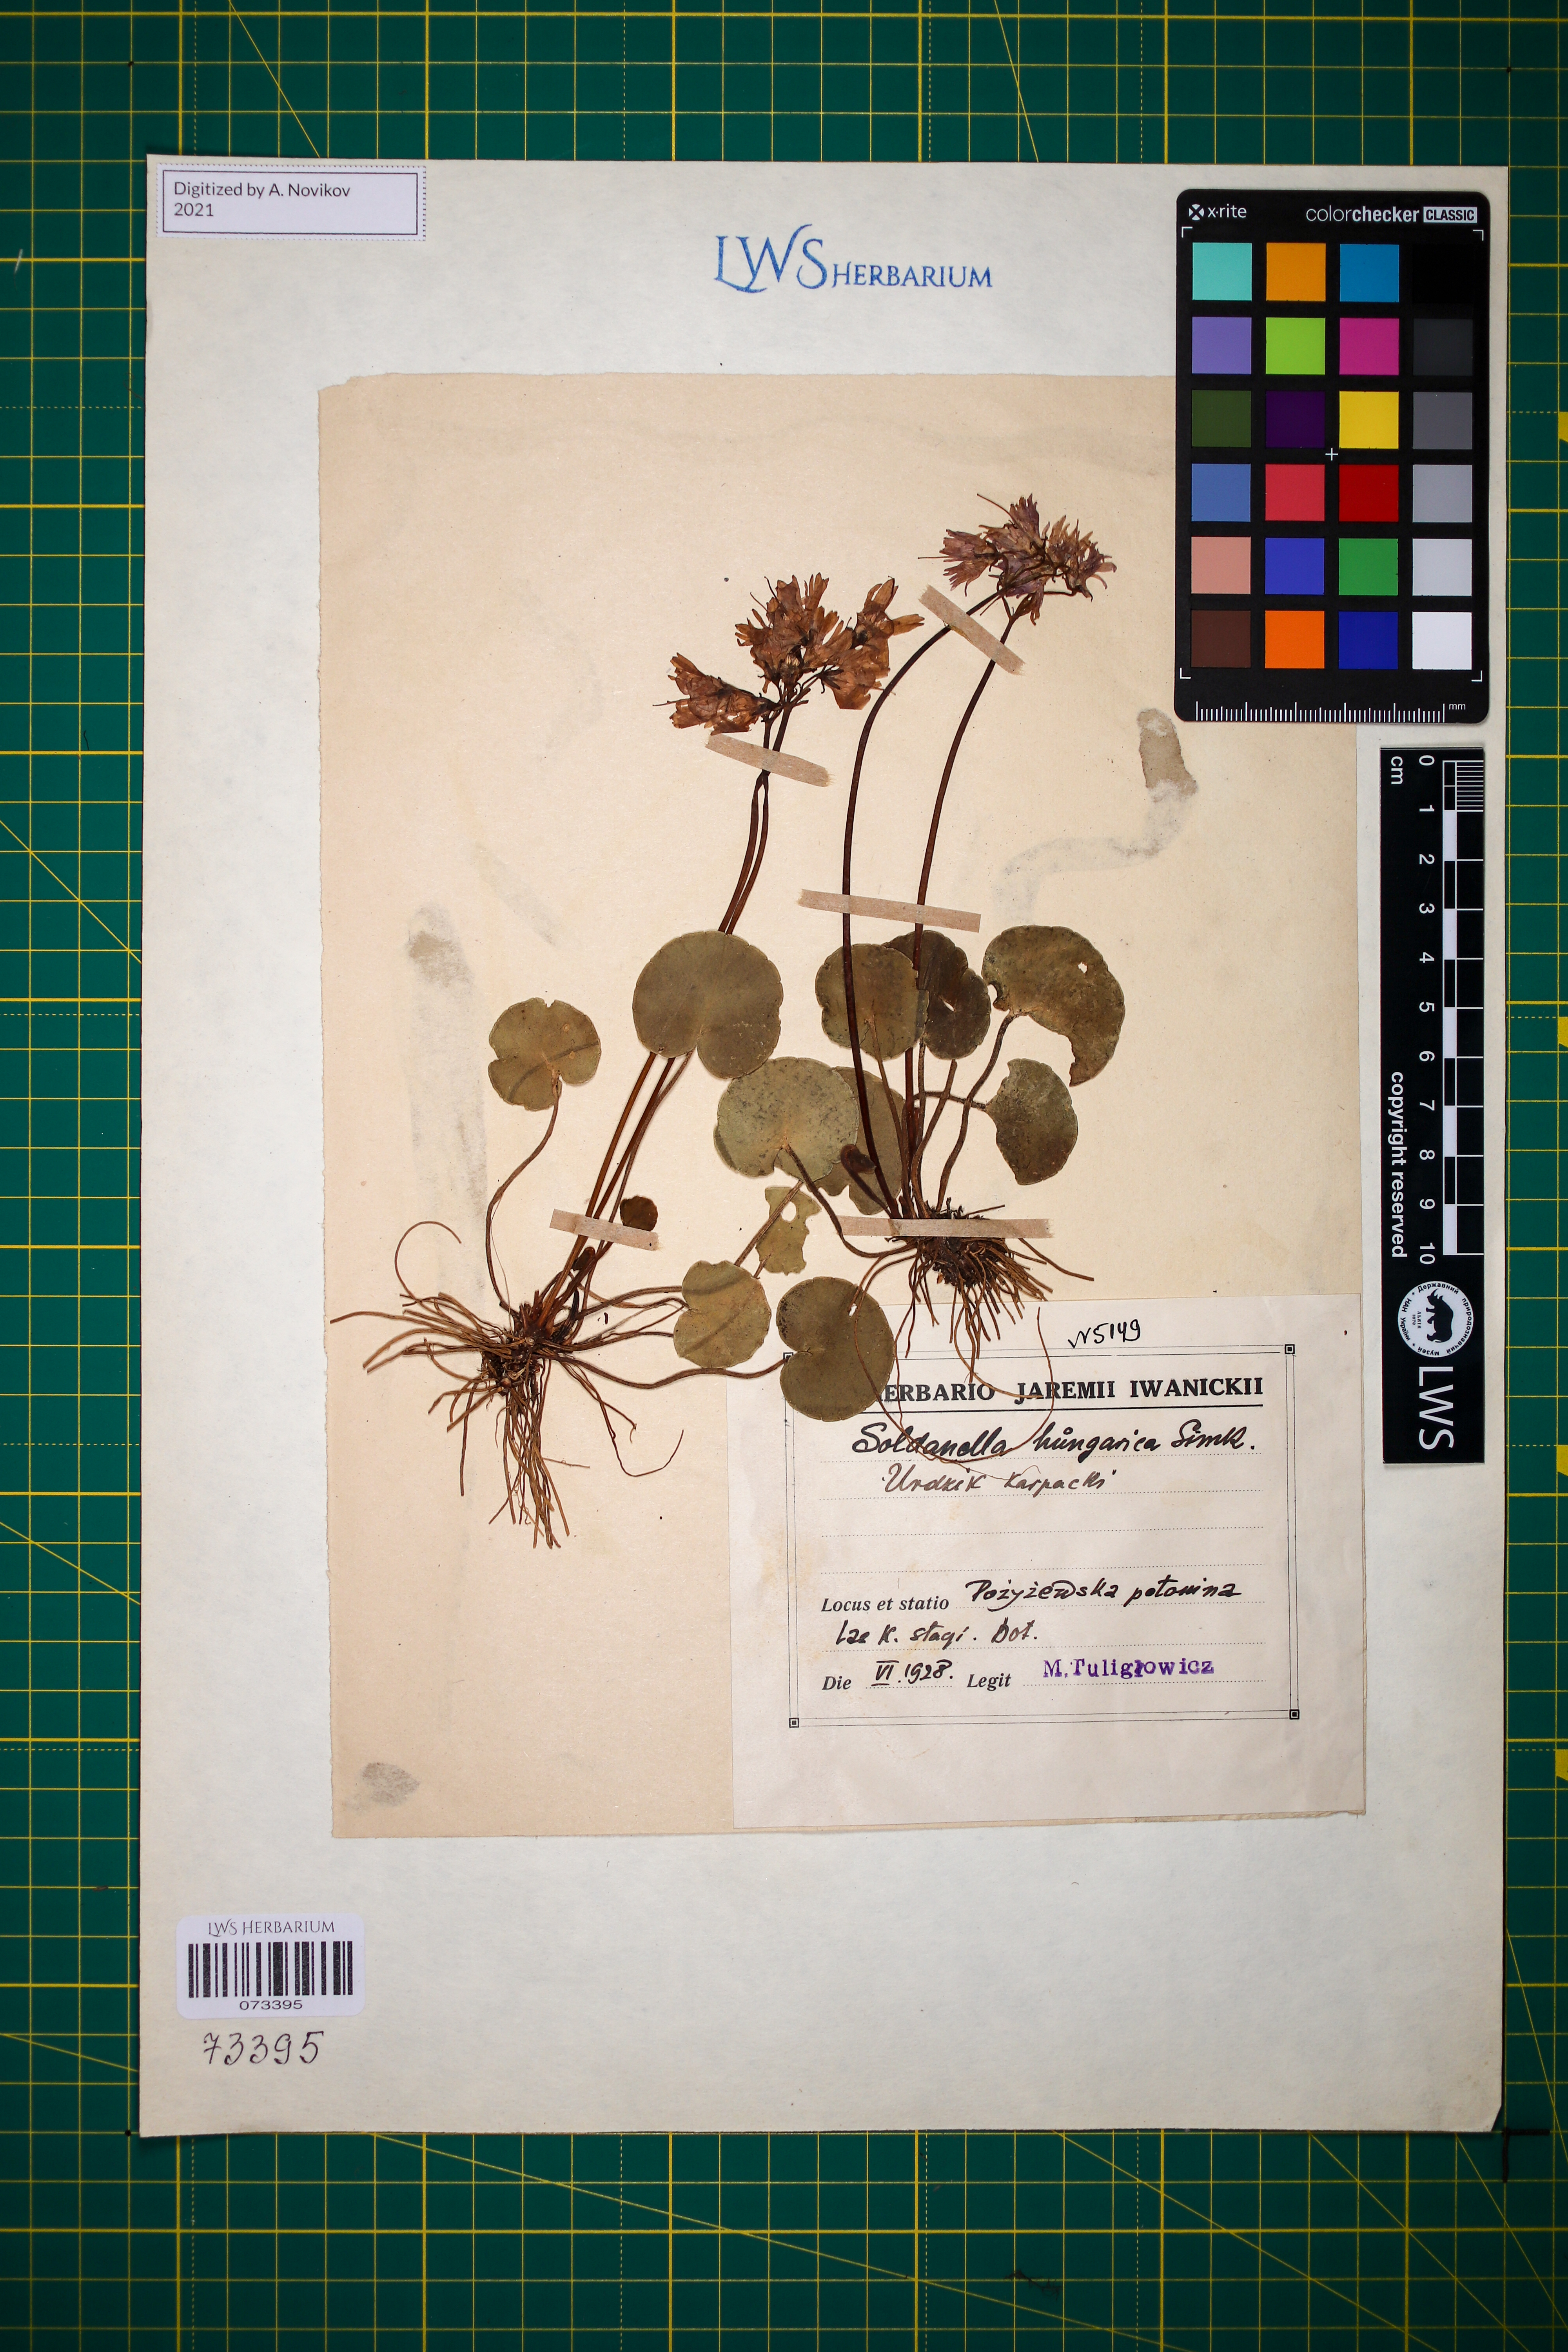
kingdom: Plantae
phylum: Tracheophyta
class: Magnoliopsida
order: Ericales
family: Primulaceae
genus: Soldanella
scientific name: Soldanella hungarica
